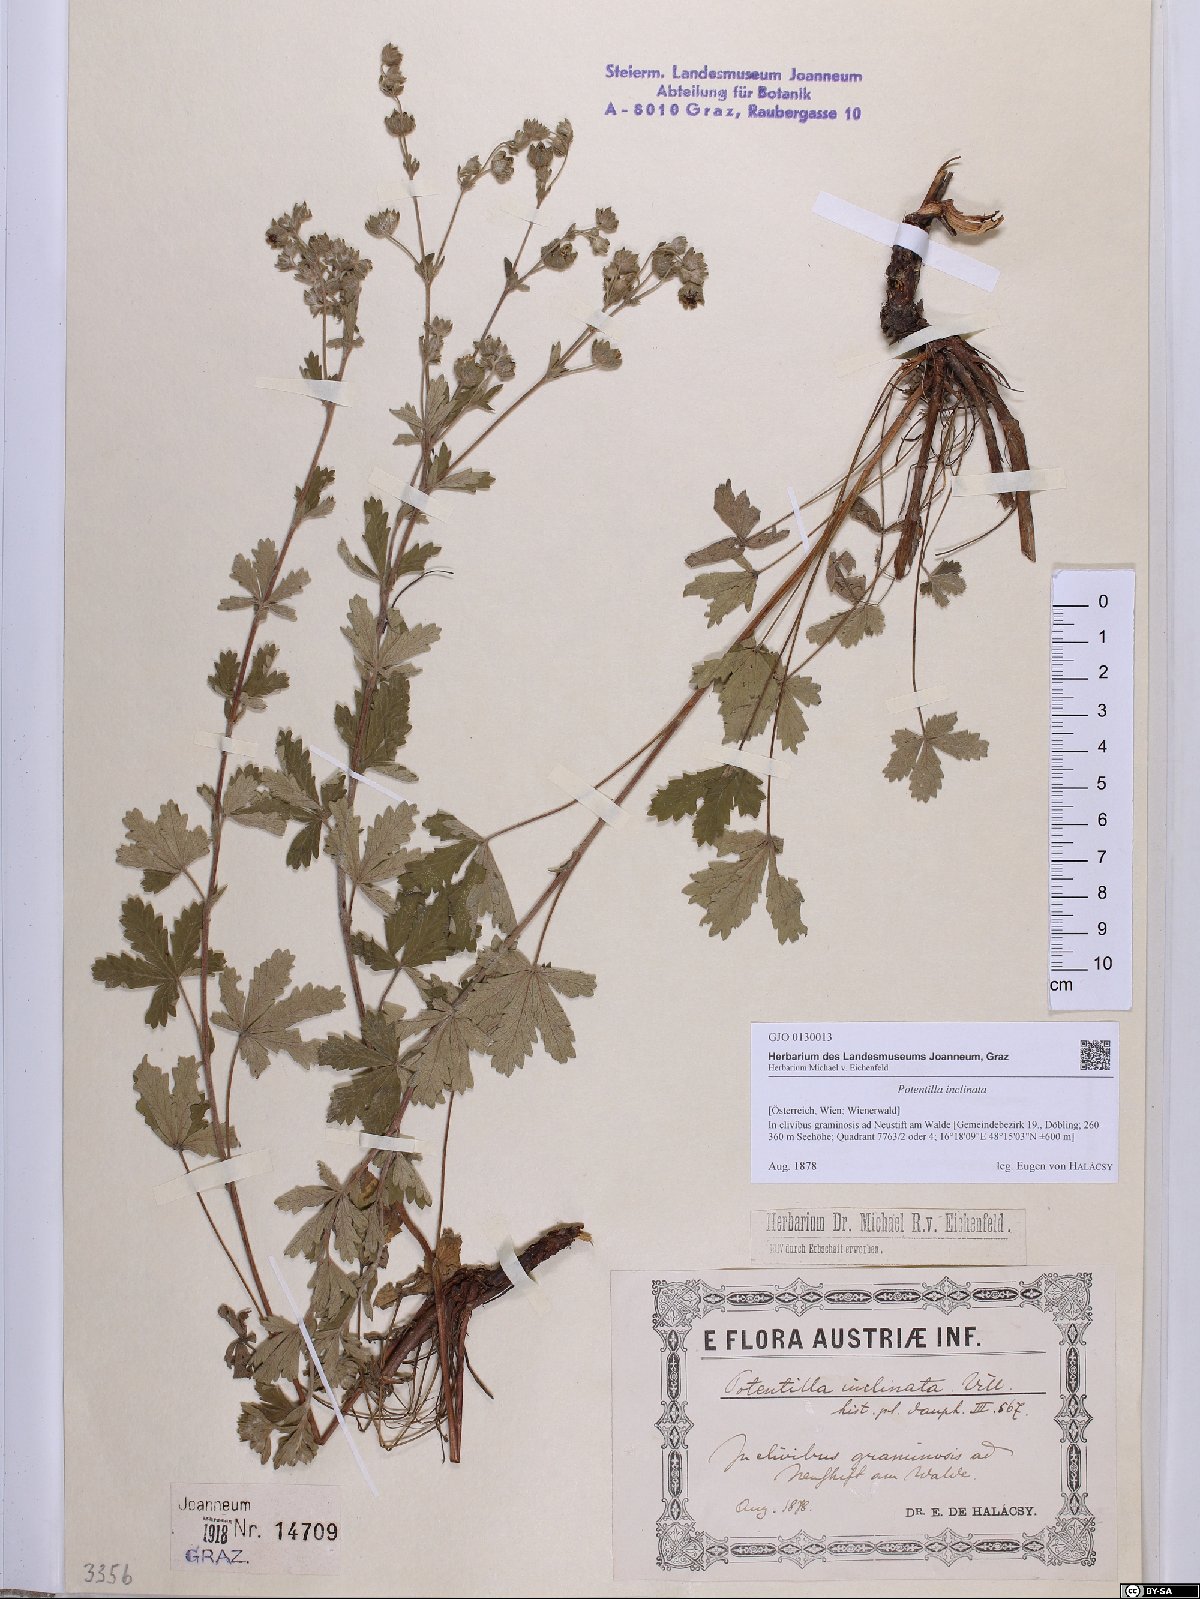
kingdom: Plantae
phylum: Tracheophyta
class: Magnoliopsida
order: Rosales
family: Rosaceae
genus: Potentilla
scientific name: Potentilla inclinata
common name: Grey cinquefoil
